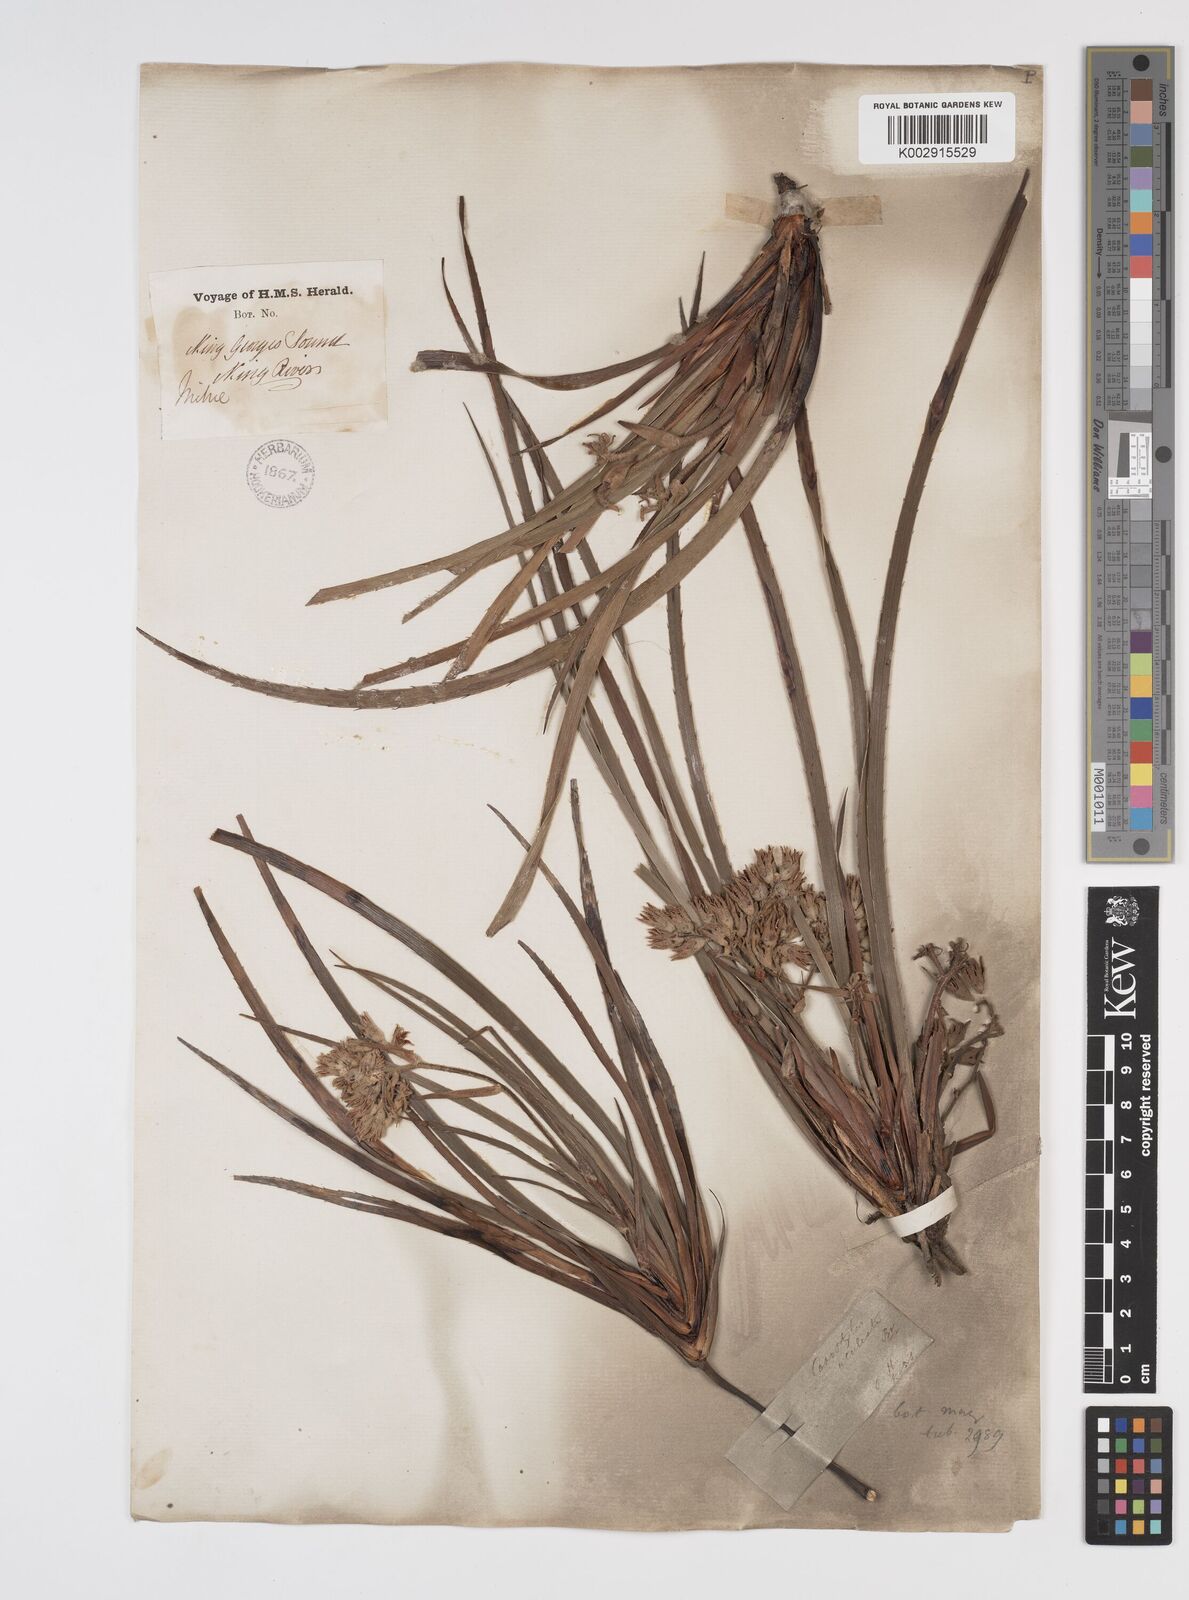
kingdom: Plantae
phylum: Tracheophyta
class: Liliopsida
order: Commelinales
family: Haemodoraceae
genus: Conostylis
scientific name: Conostylis aculeata
